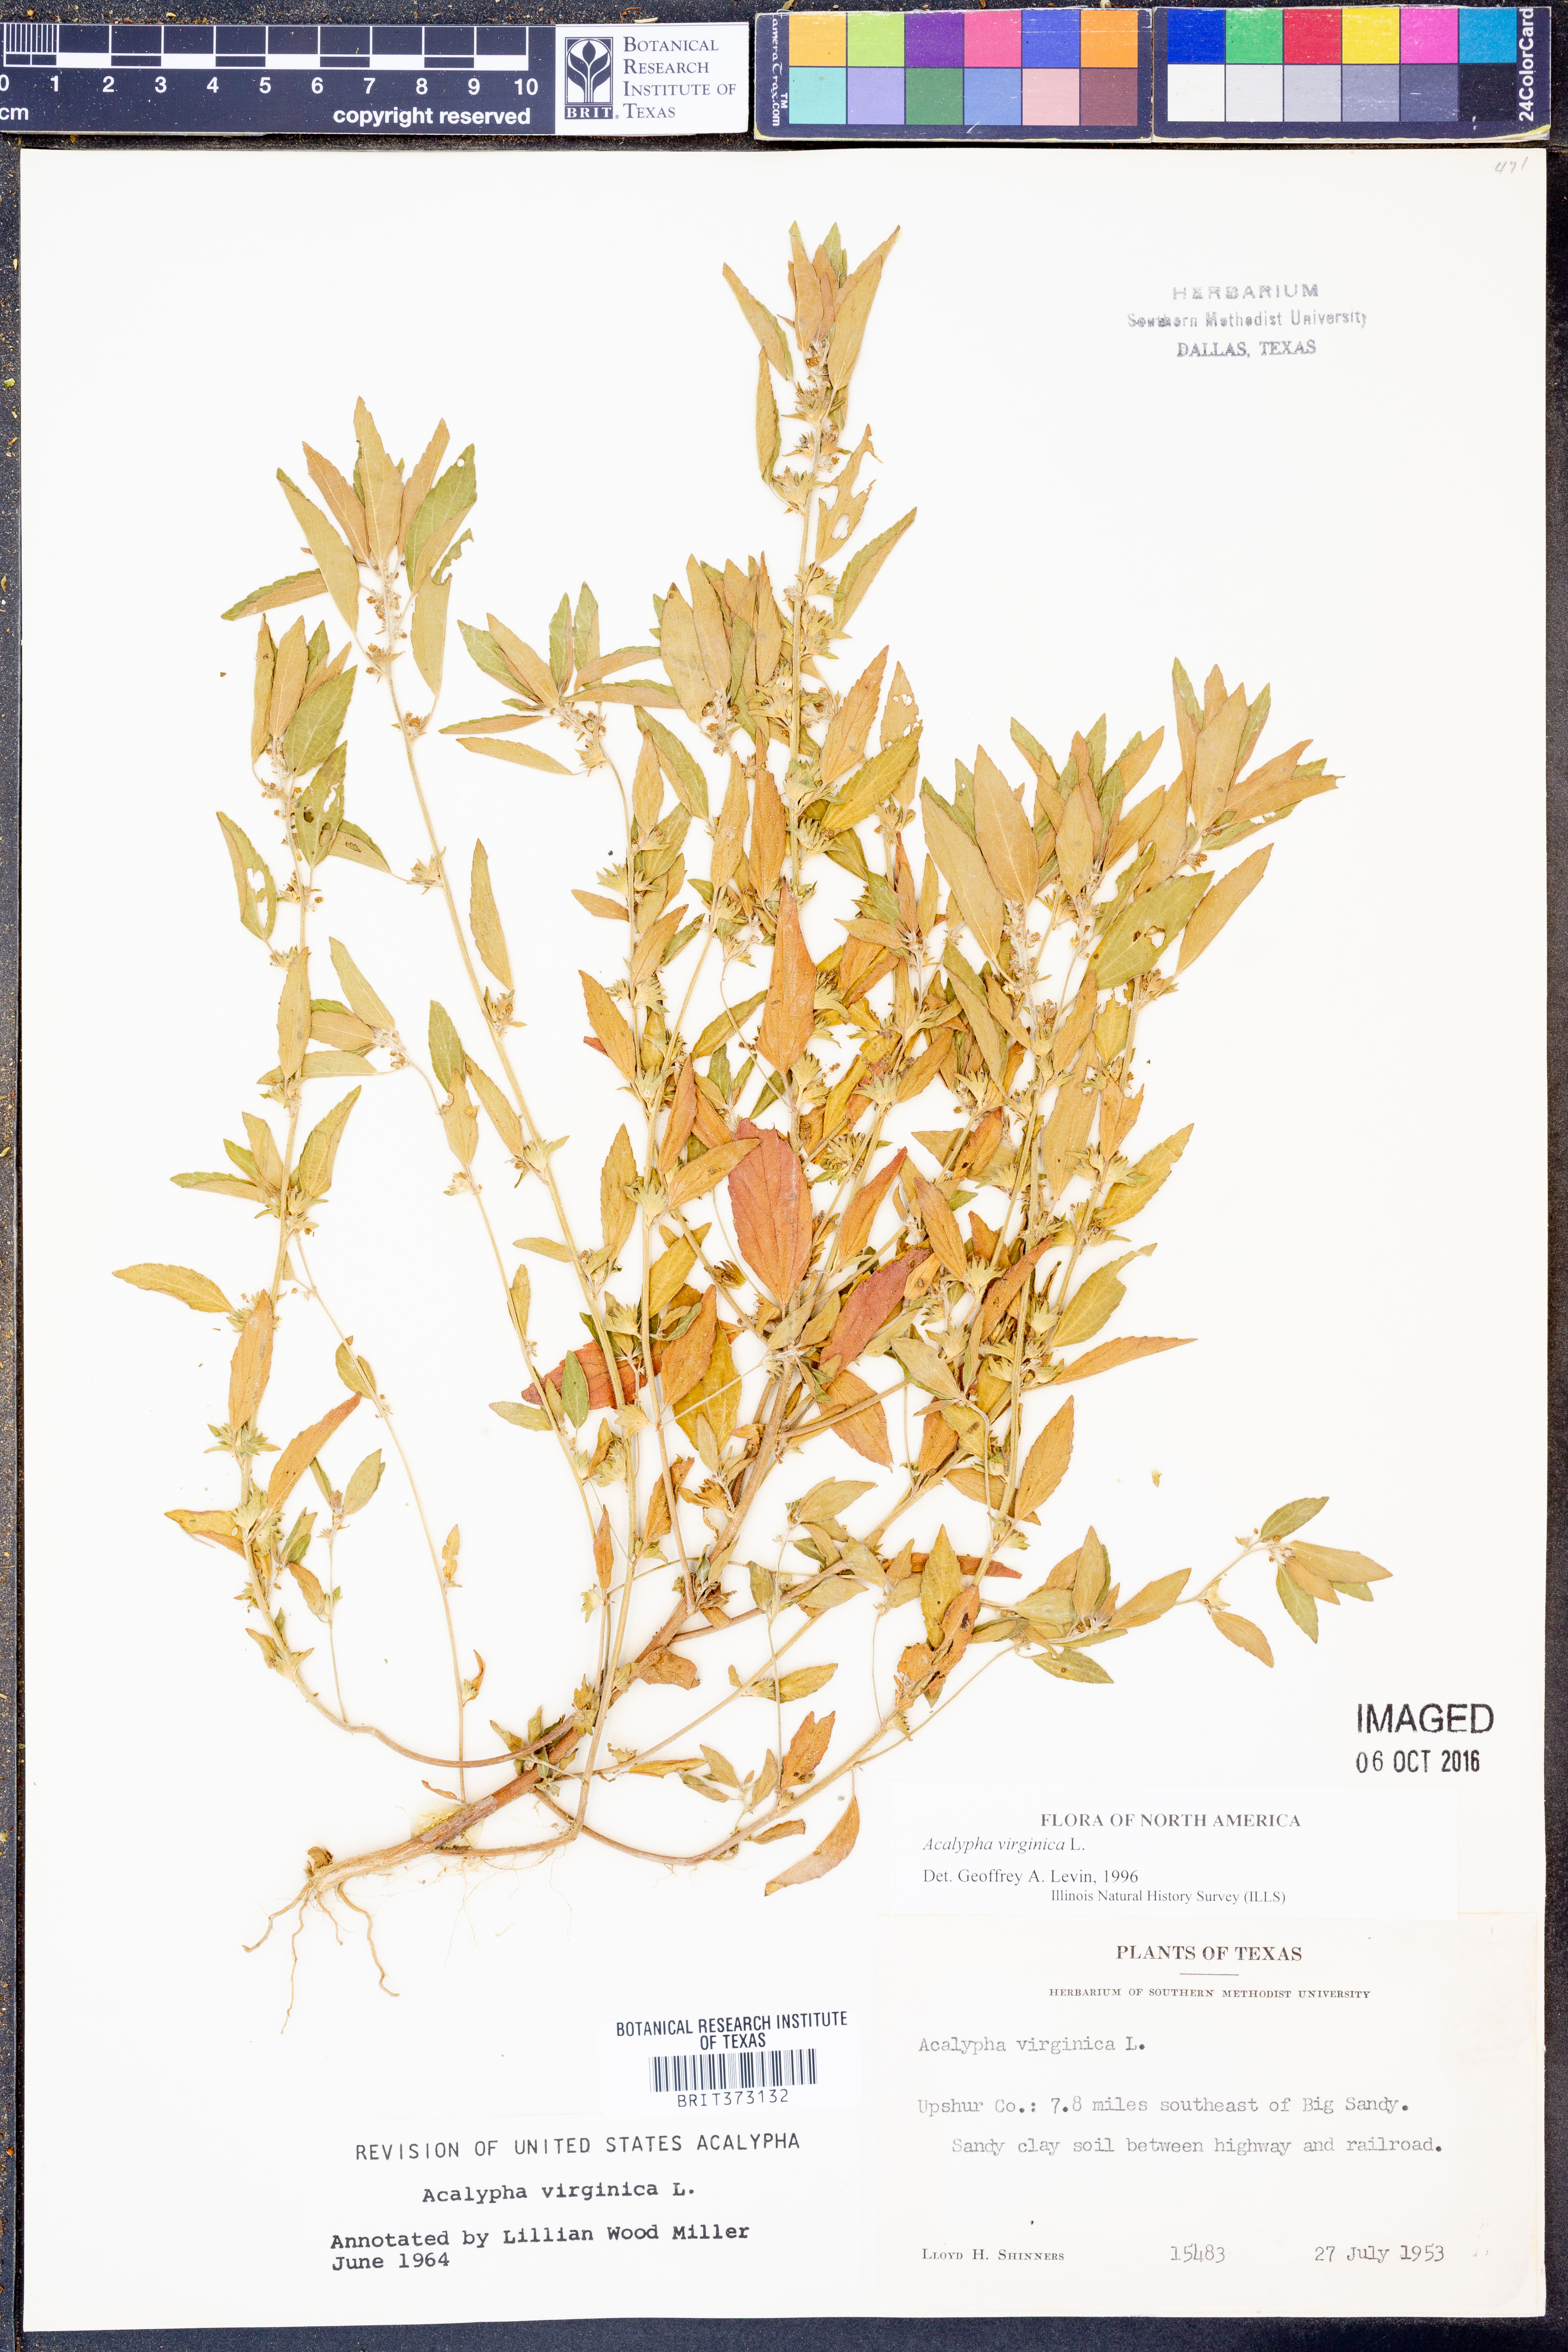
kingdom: Plantae
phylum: Tracheophyta
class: Magnoliopsida
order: Malpighiales
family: Euphorbiaceae
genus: Acalypha
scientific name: Acalypha virginica
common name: Virginia copperleaf
